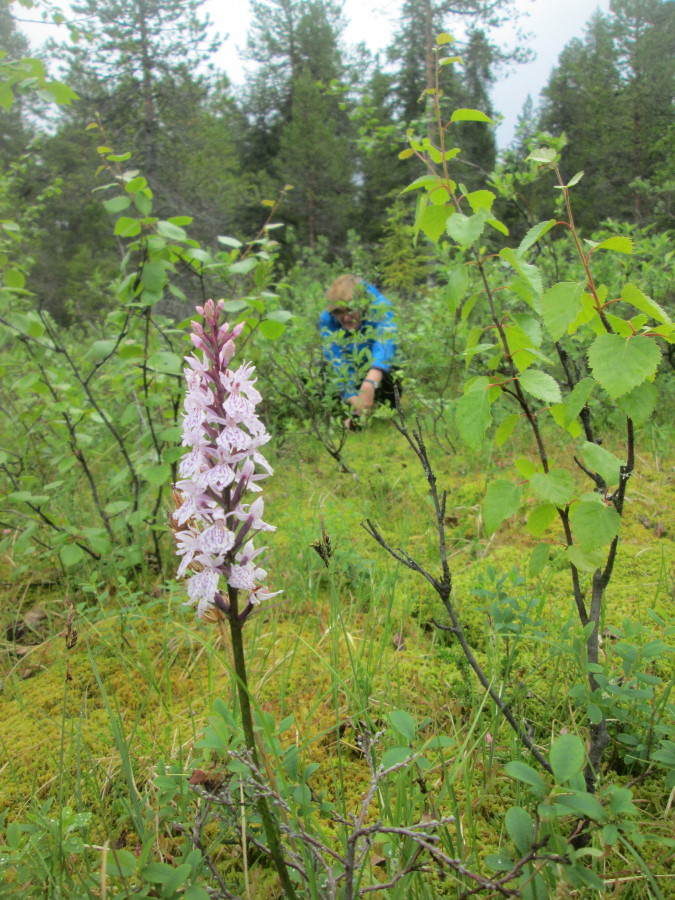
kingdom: Plantae
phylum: Tracheophyta
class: Liliopsida
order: Asparagales
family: Orchidaceae
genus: Dactylorhiza
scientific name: Dactylorhiza maculata
